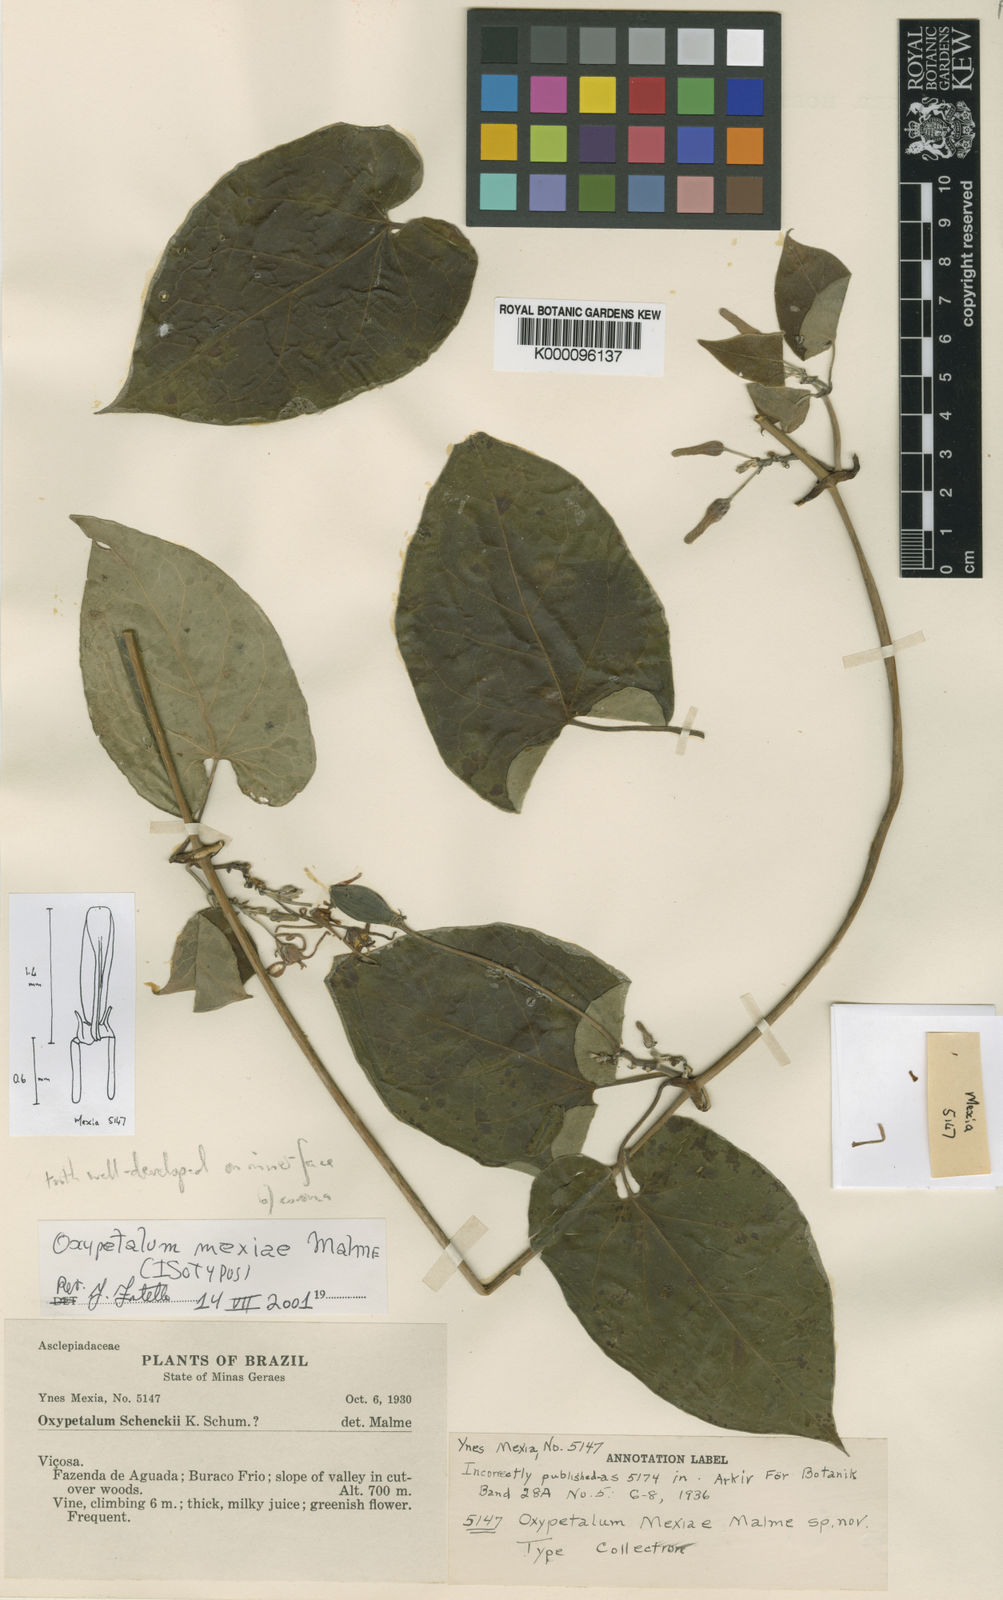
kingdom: Plantae
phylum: Tracheophyta
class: Magnoliopsida
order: Gentianales
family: Apocynaceae
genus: Oxypetalum
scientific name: Oxypetalum cordifolium
